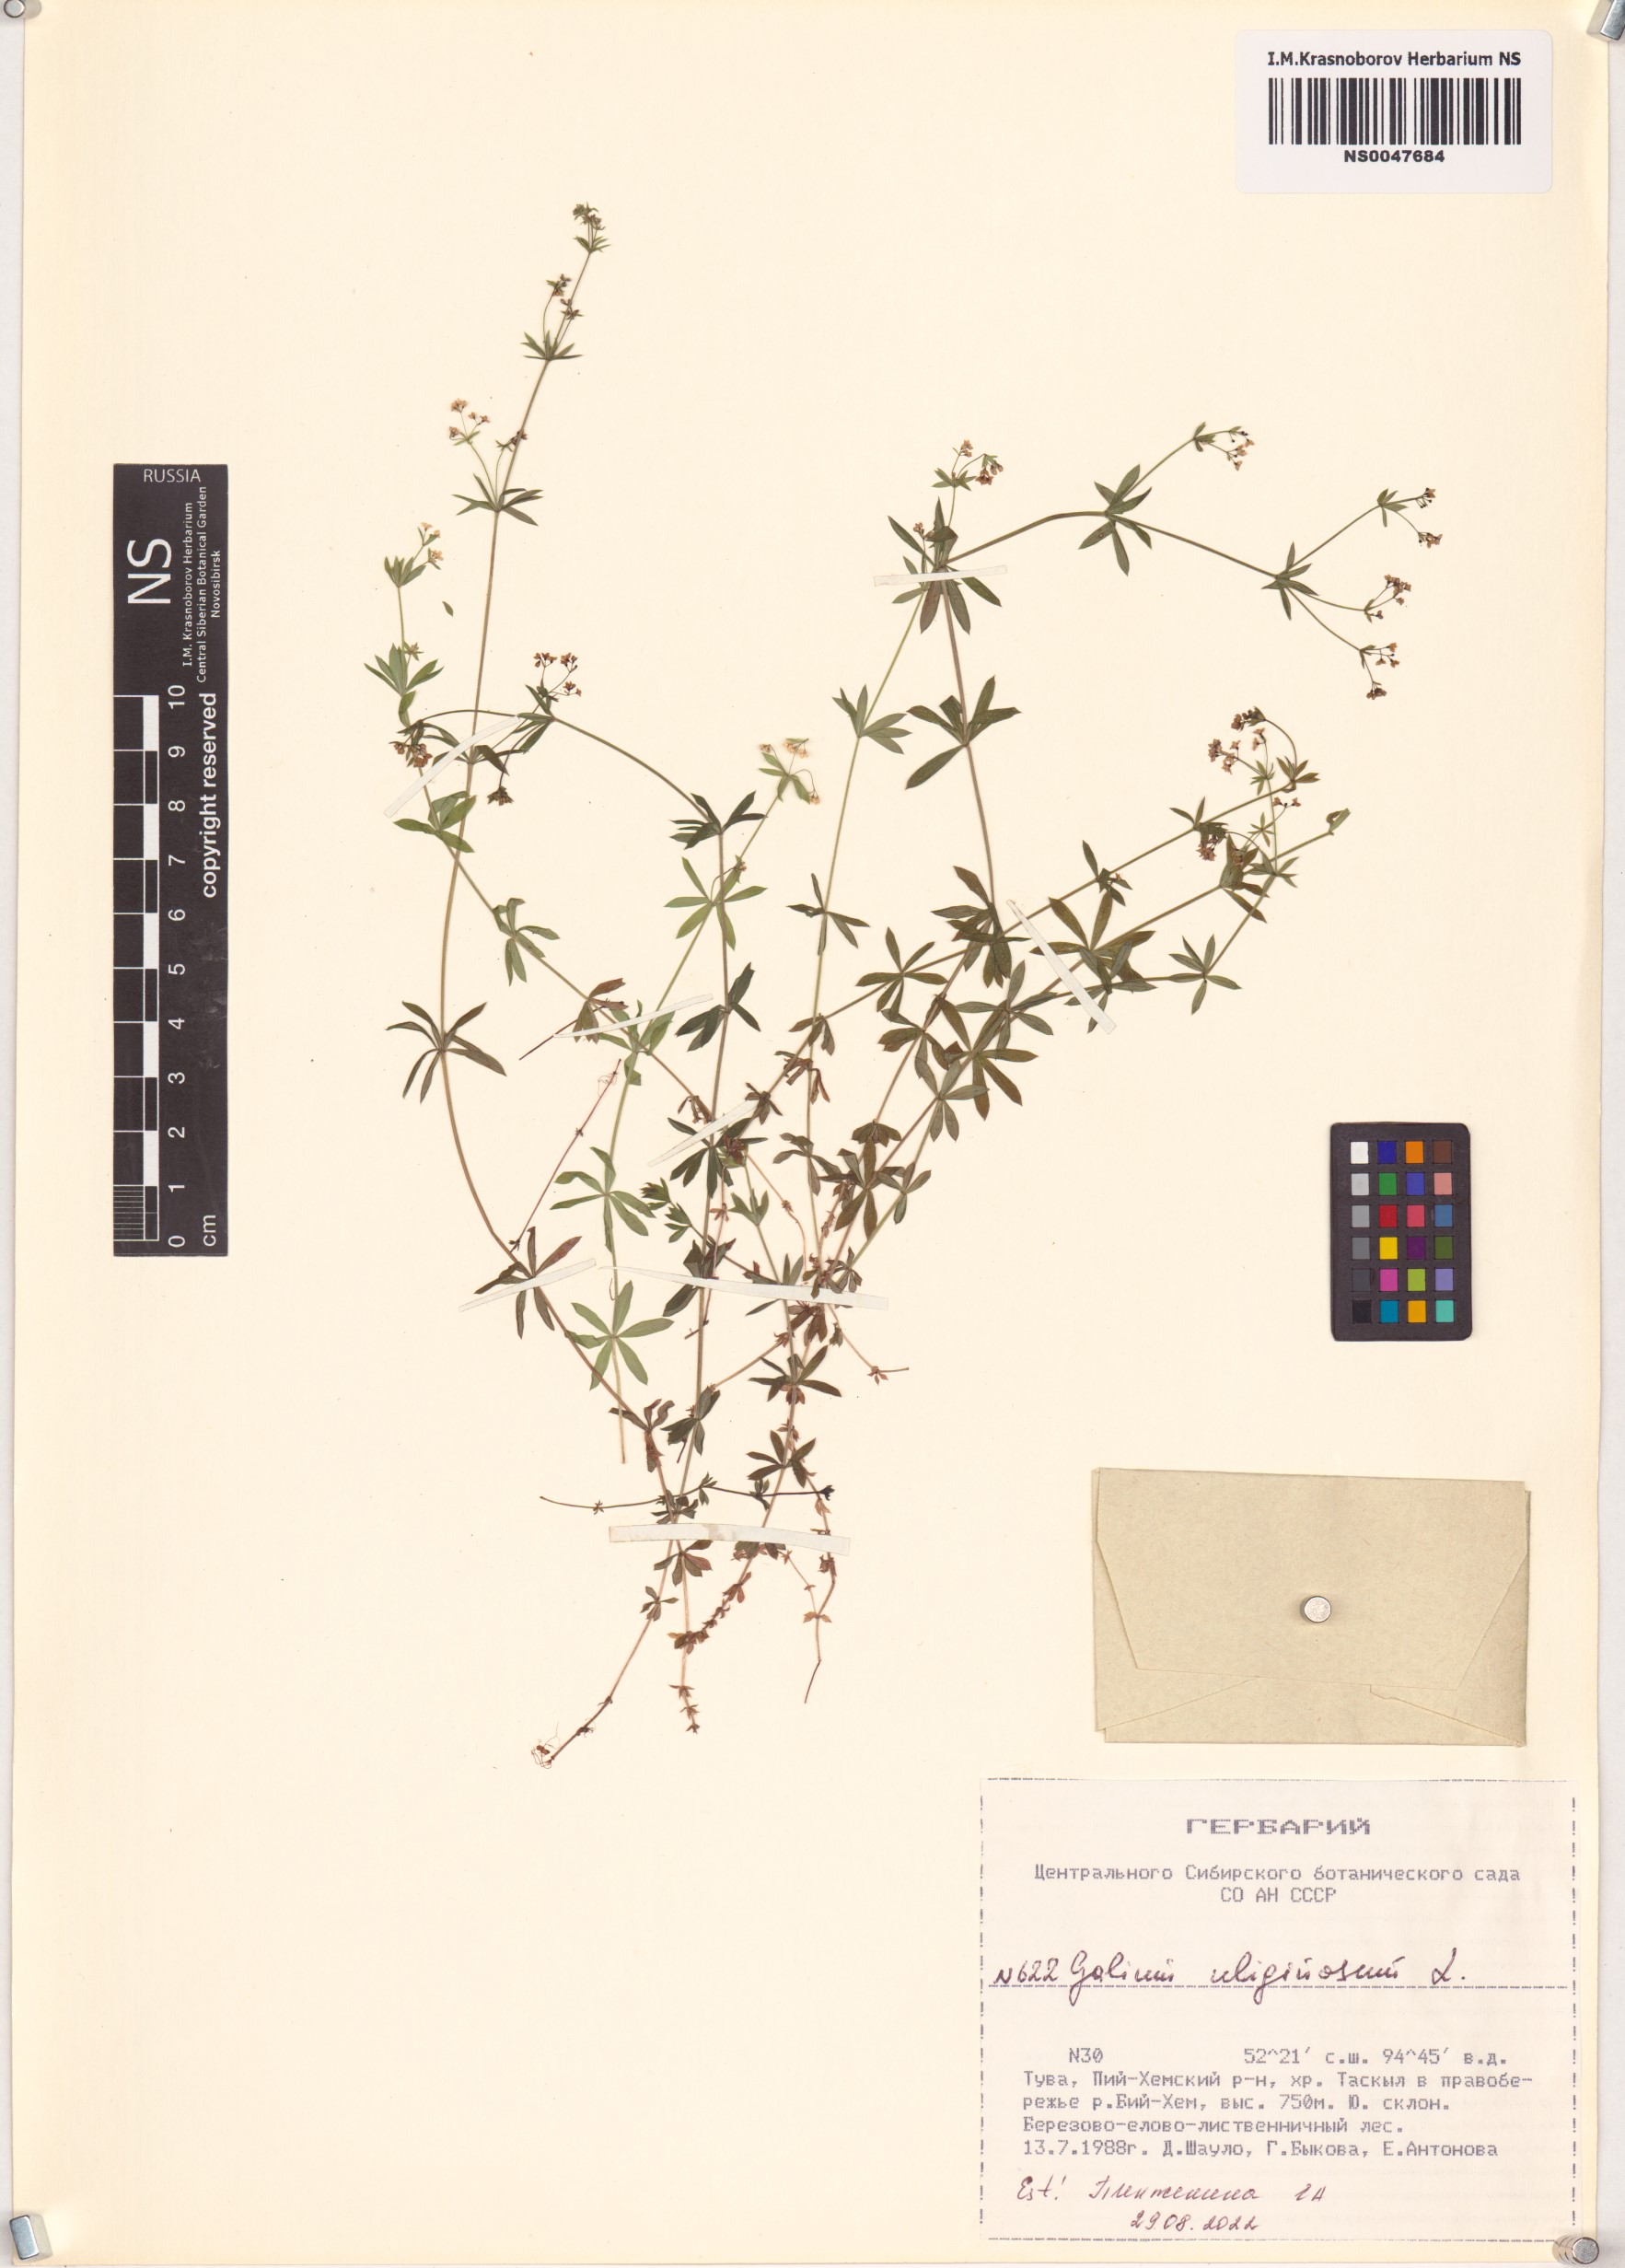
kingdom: Plantae
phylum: Tracheophyta
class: Magnoliopsida
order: Gentianales
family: Rubiaceae
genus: Galium
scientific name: Galium uliginosum
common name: Fen bedstraw
